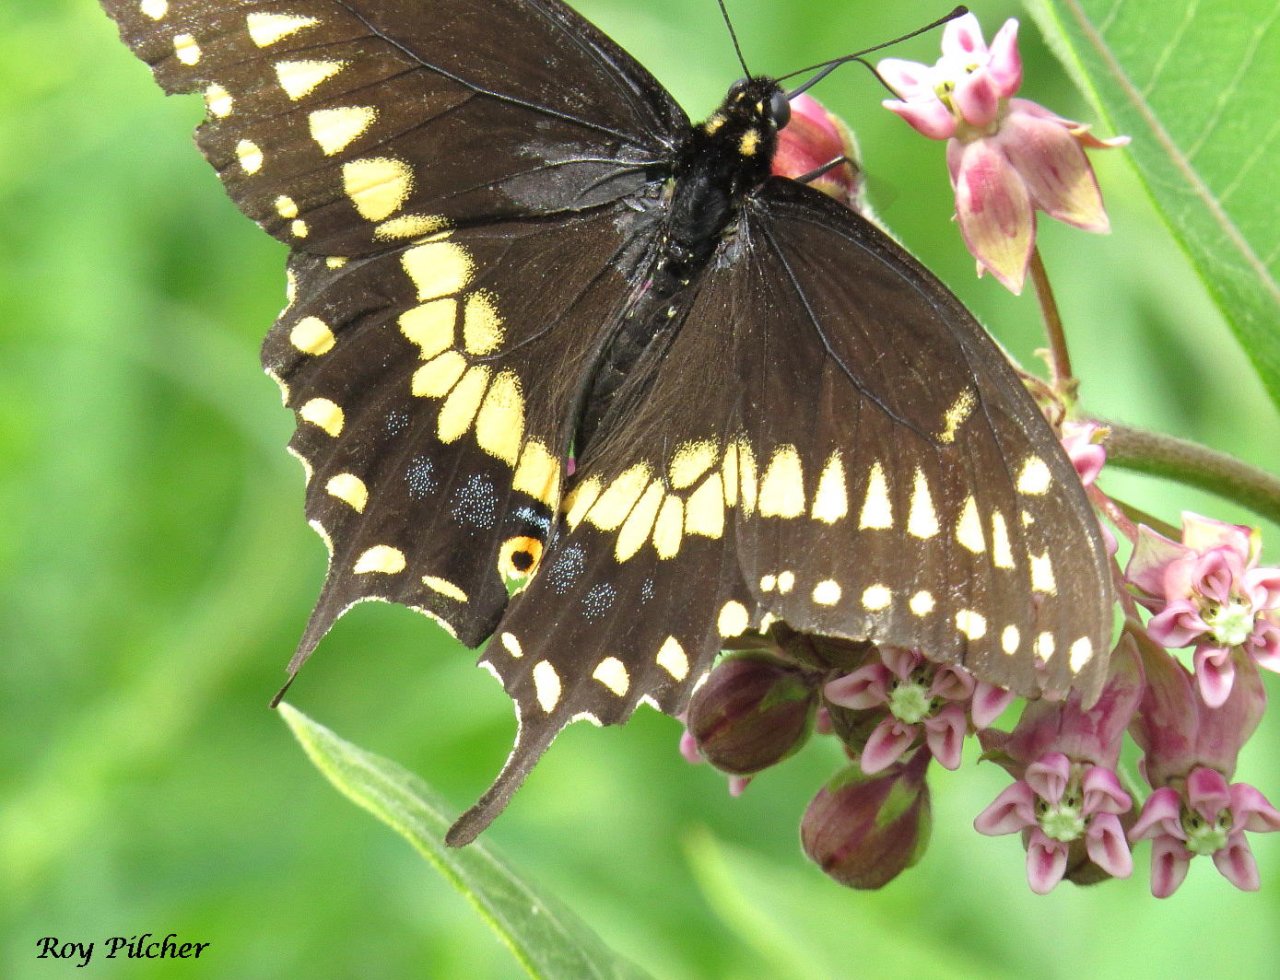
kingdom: Animalia
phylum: Arthropoda
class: Insecta
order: Lepidoptera
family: Papilionidae
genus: Papilio
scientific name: Papilio polyxenes
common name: Black Swallowtail
